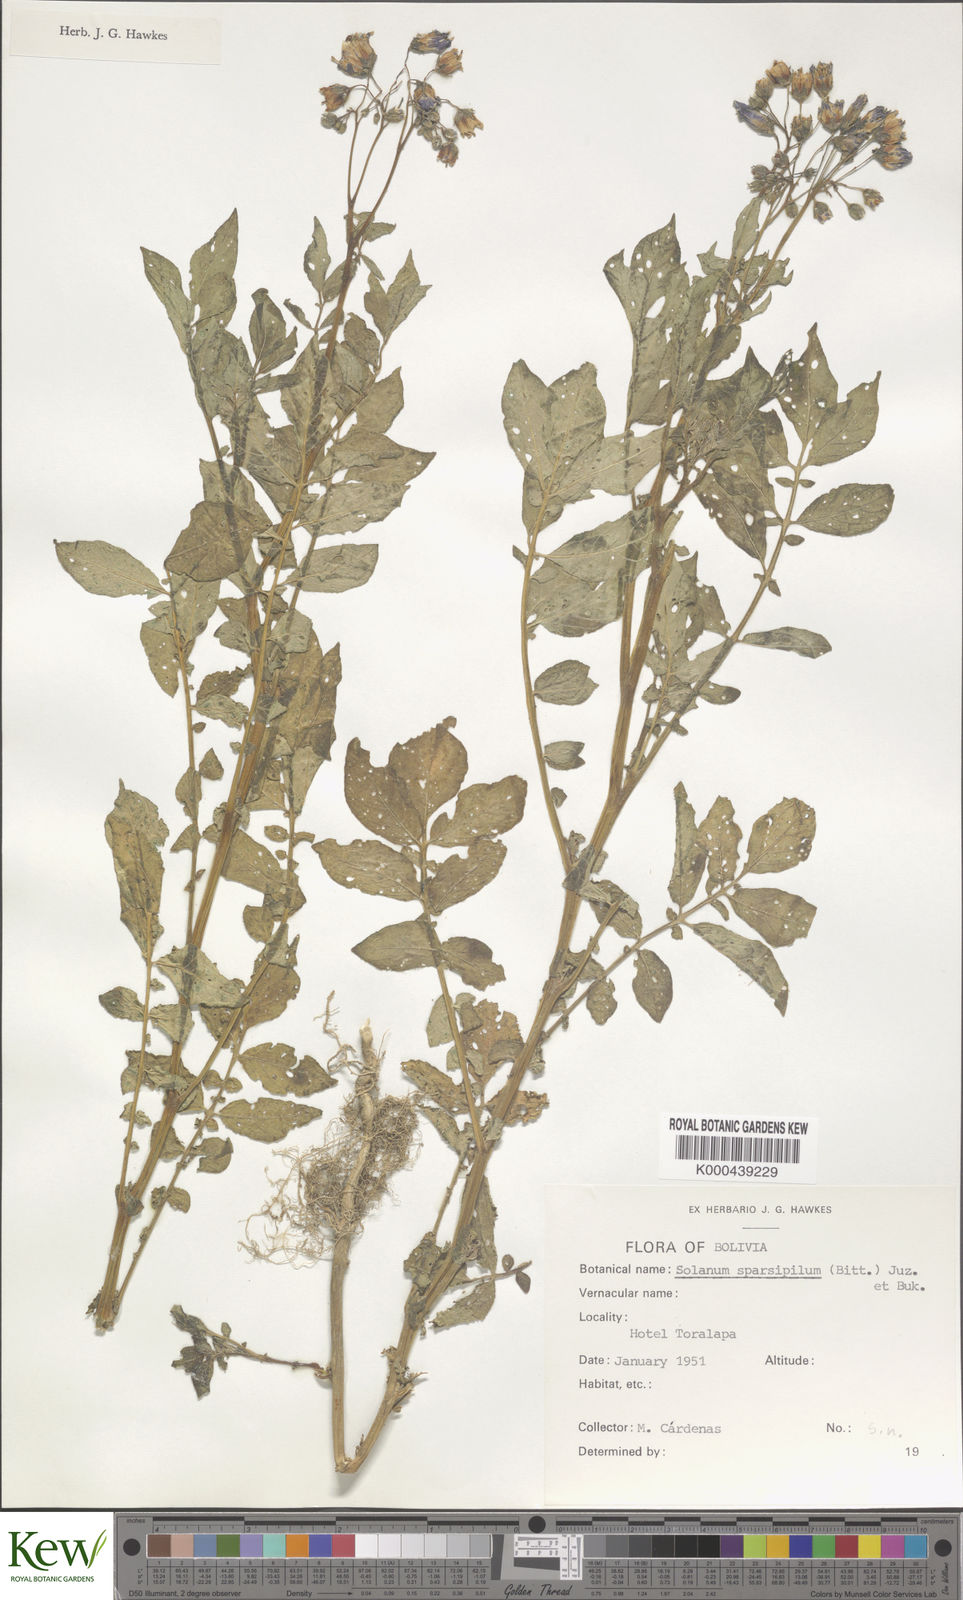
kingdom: Plantae
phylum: Tracheophyta
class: Magnoliopsida
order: Solanales
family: Solanaceae
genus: Solanum
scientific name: Solanum brevicaule
